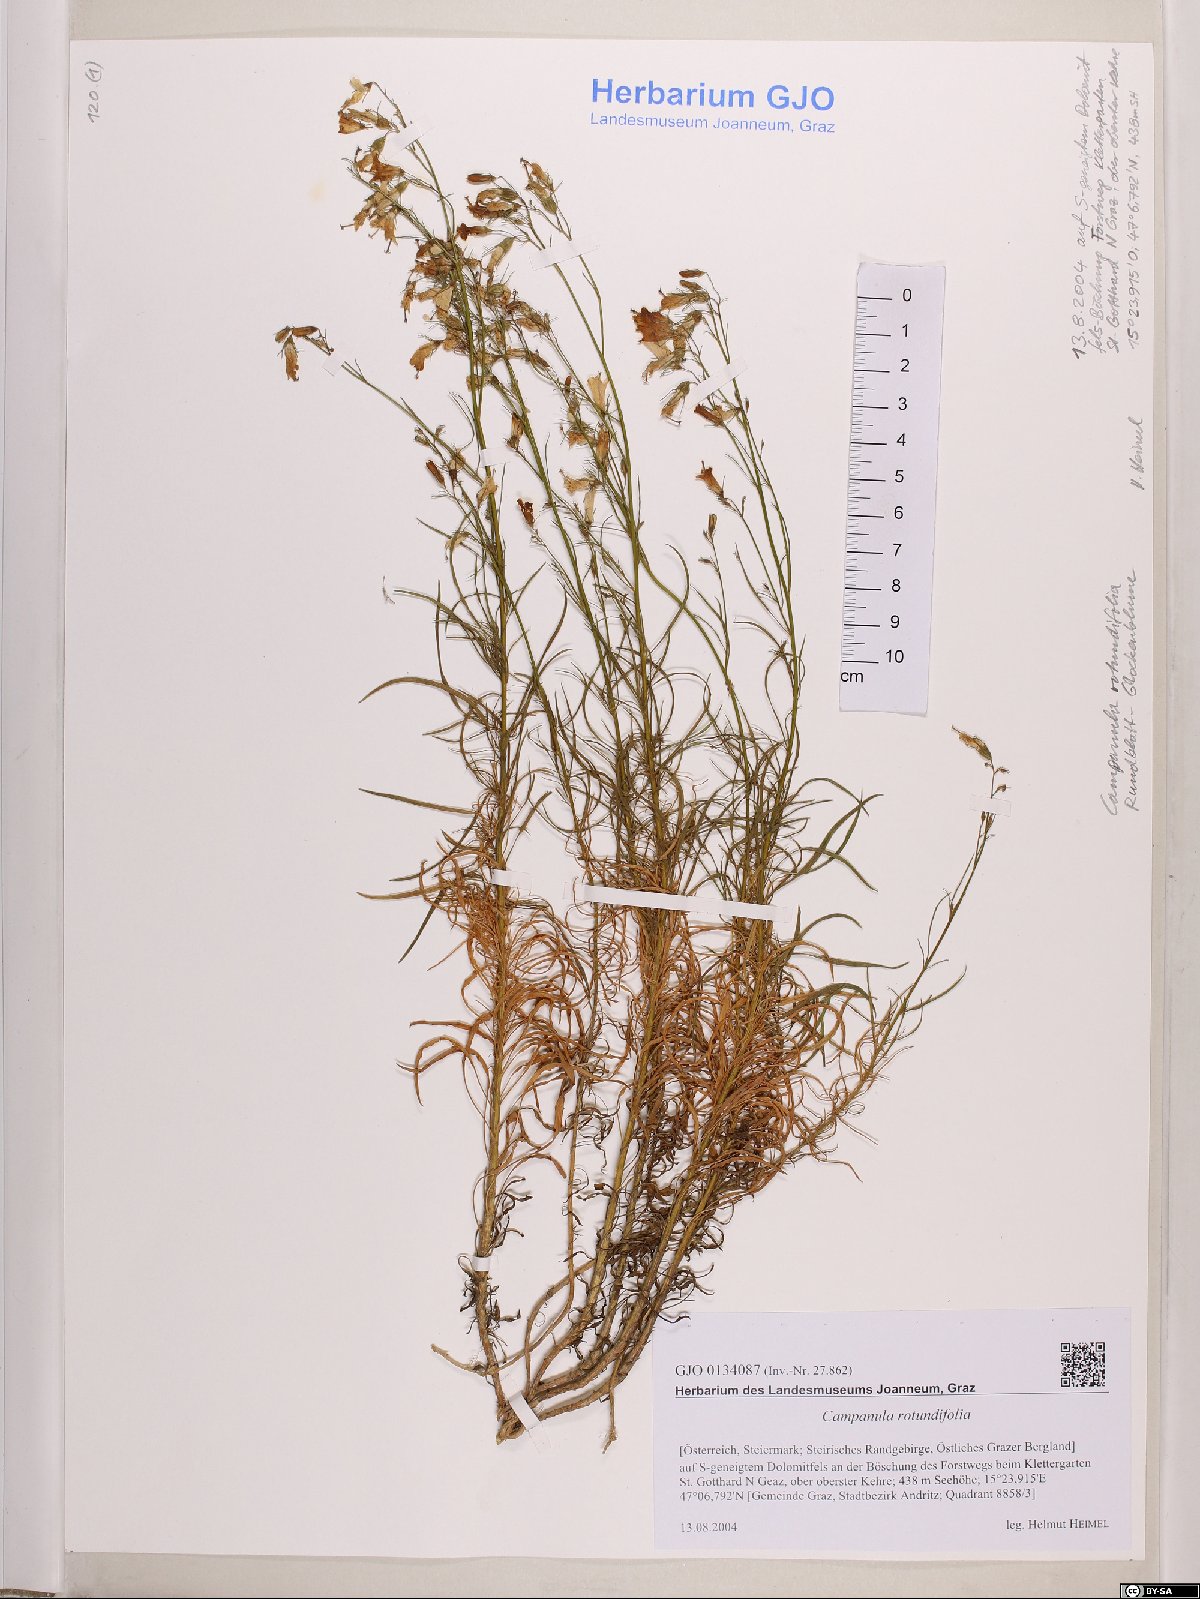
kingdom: Plantae
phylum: Tracheophyta
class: Magnoliopsida
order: Asterales
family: Campanulaceae
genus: Campanula
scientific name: Campanula rotundifolia
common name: Harebell
